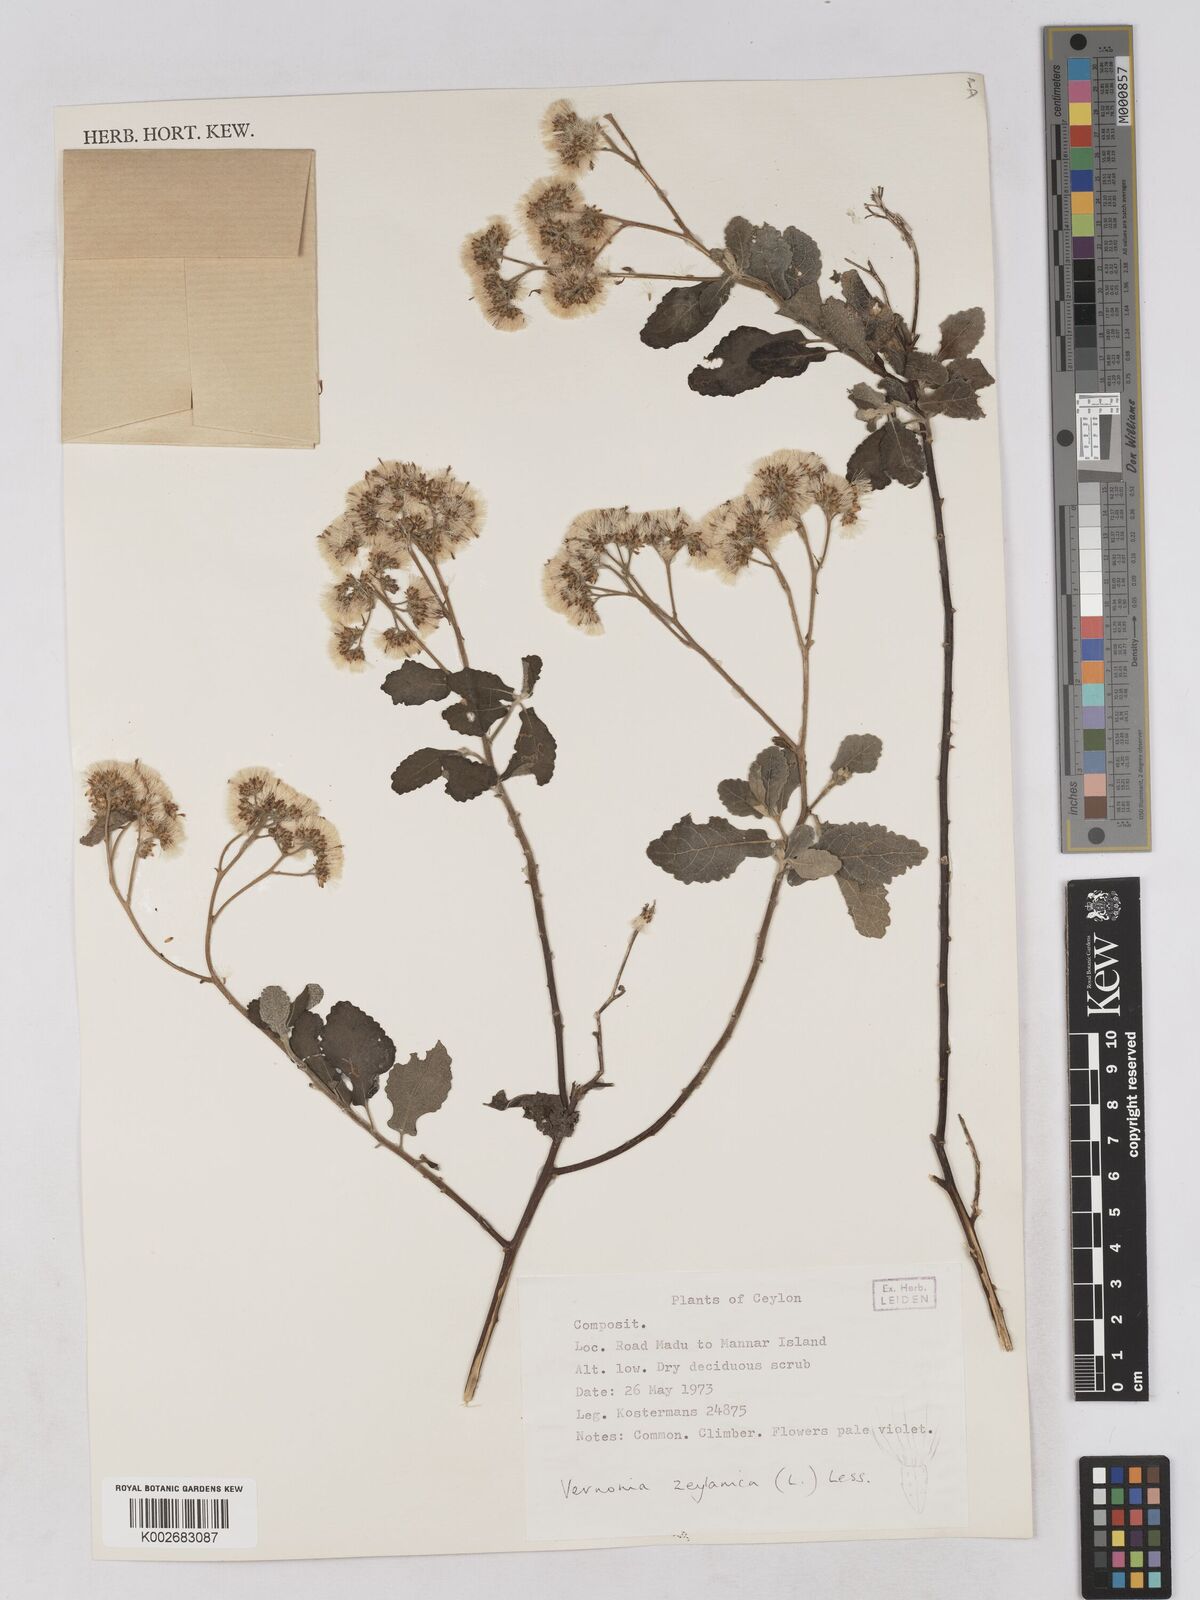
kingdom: Plantae
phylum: Tracheophyta
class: Magnoliopsida
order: Asterales
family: Asteraceae
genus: Jeffreycia
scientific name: Jeffreycia zeylanica
